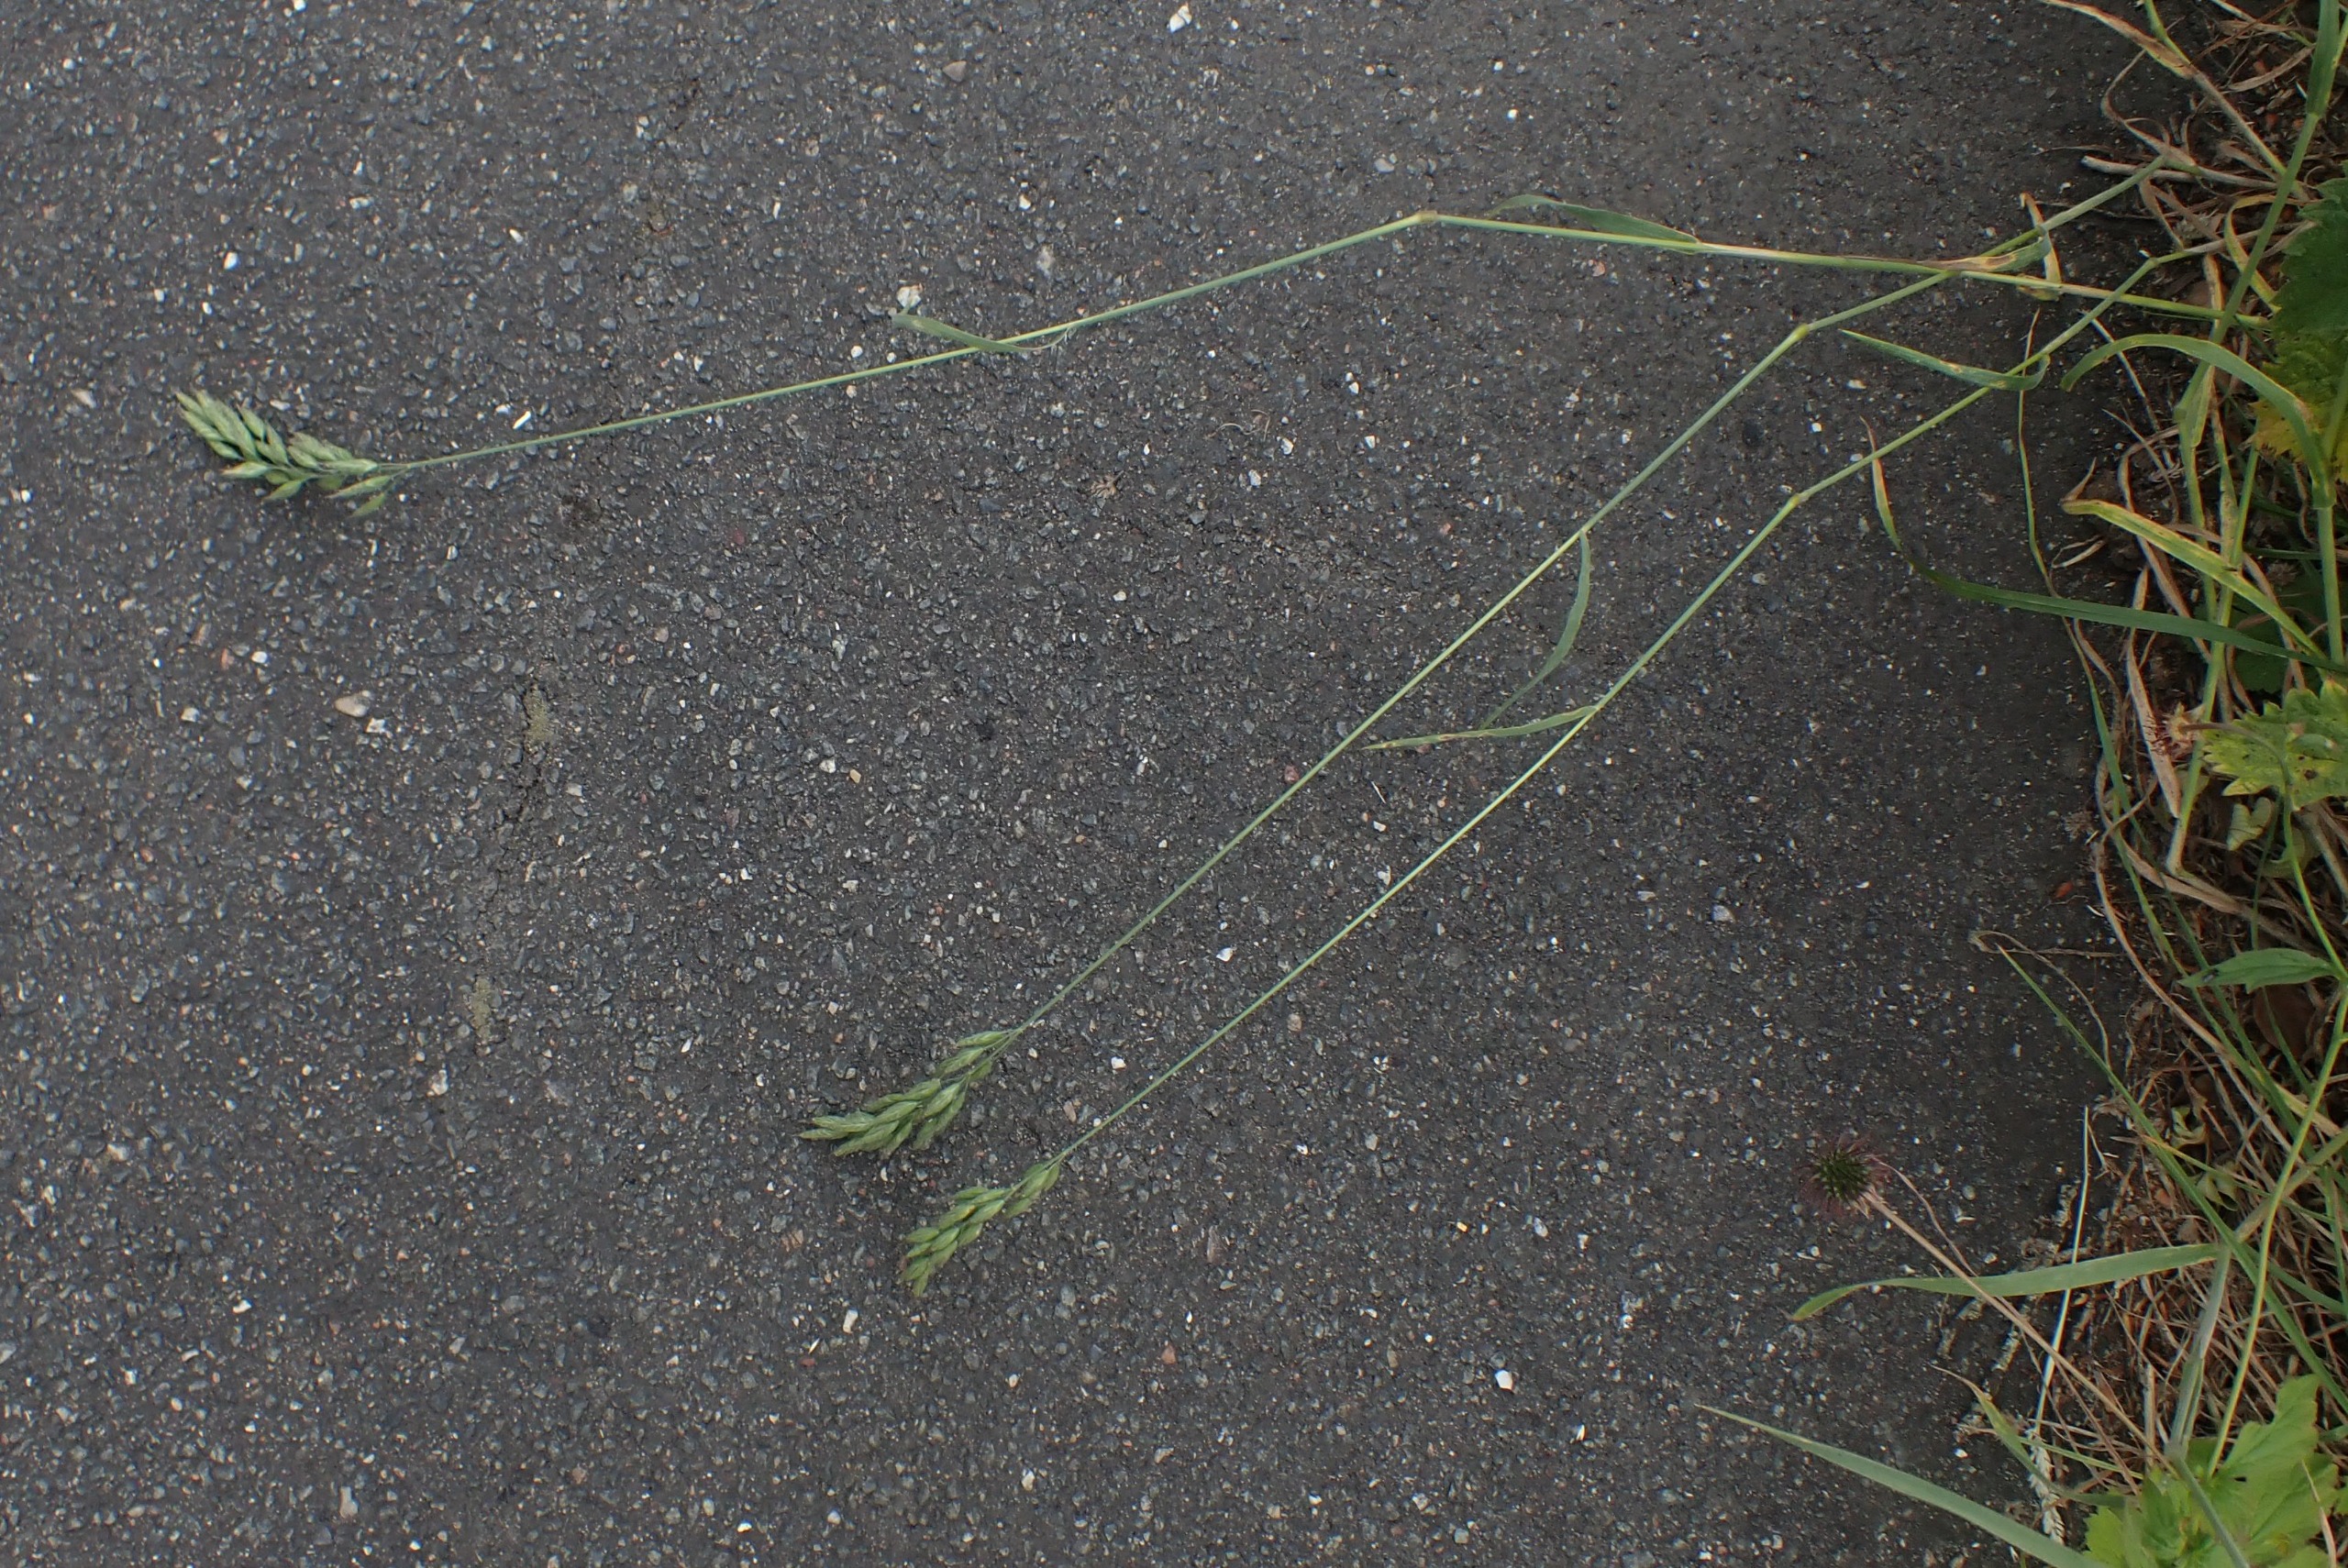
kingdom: Plantae
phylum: Tracheophyta
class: Liliopsida
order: Poales
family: Poaceae
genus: Bromus
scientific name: Bromus hordeaceus
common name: Blød hejre
